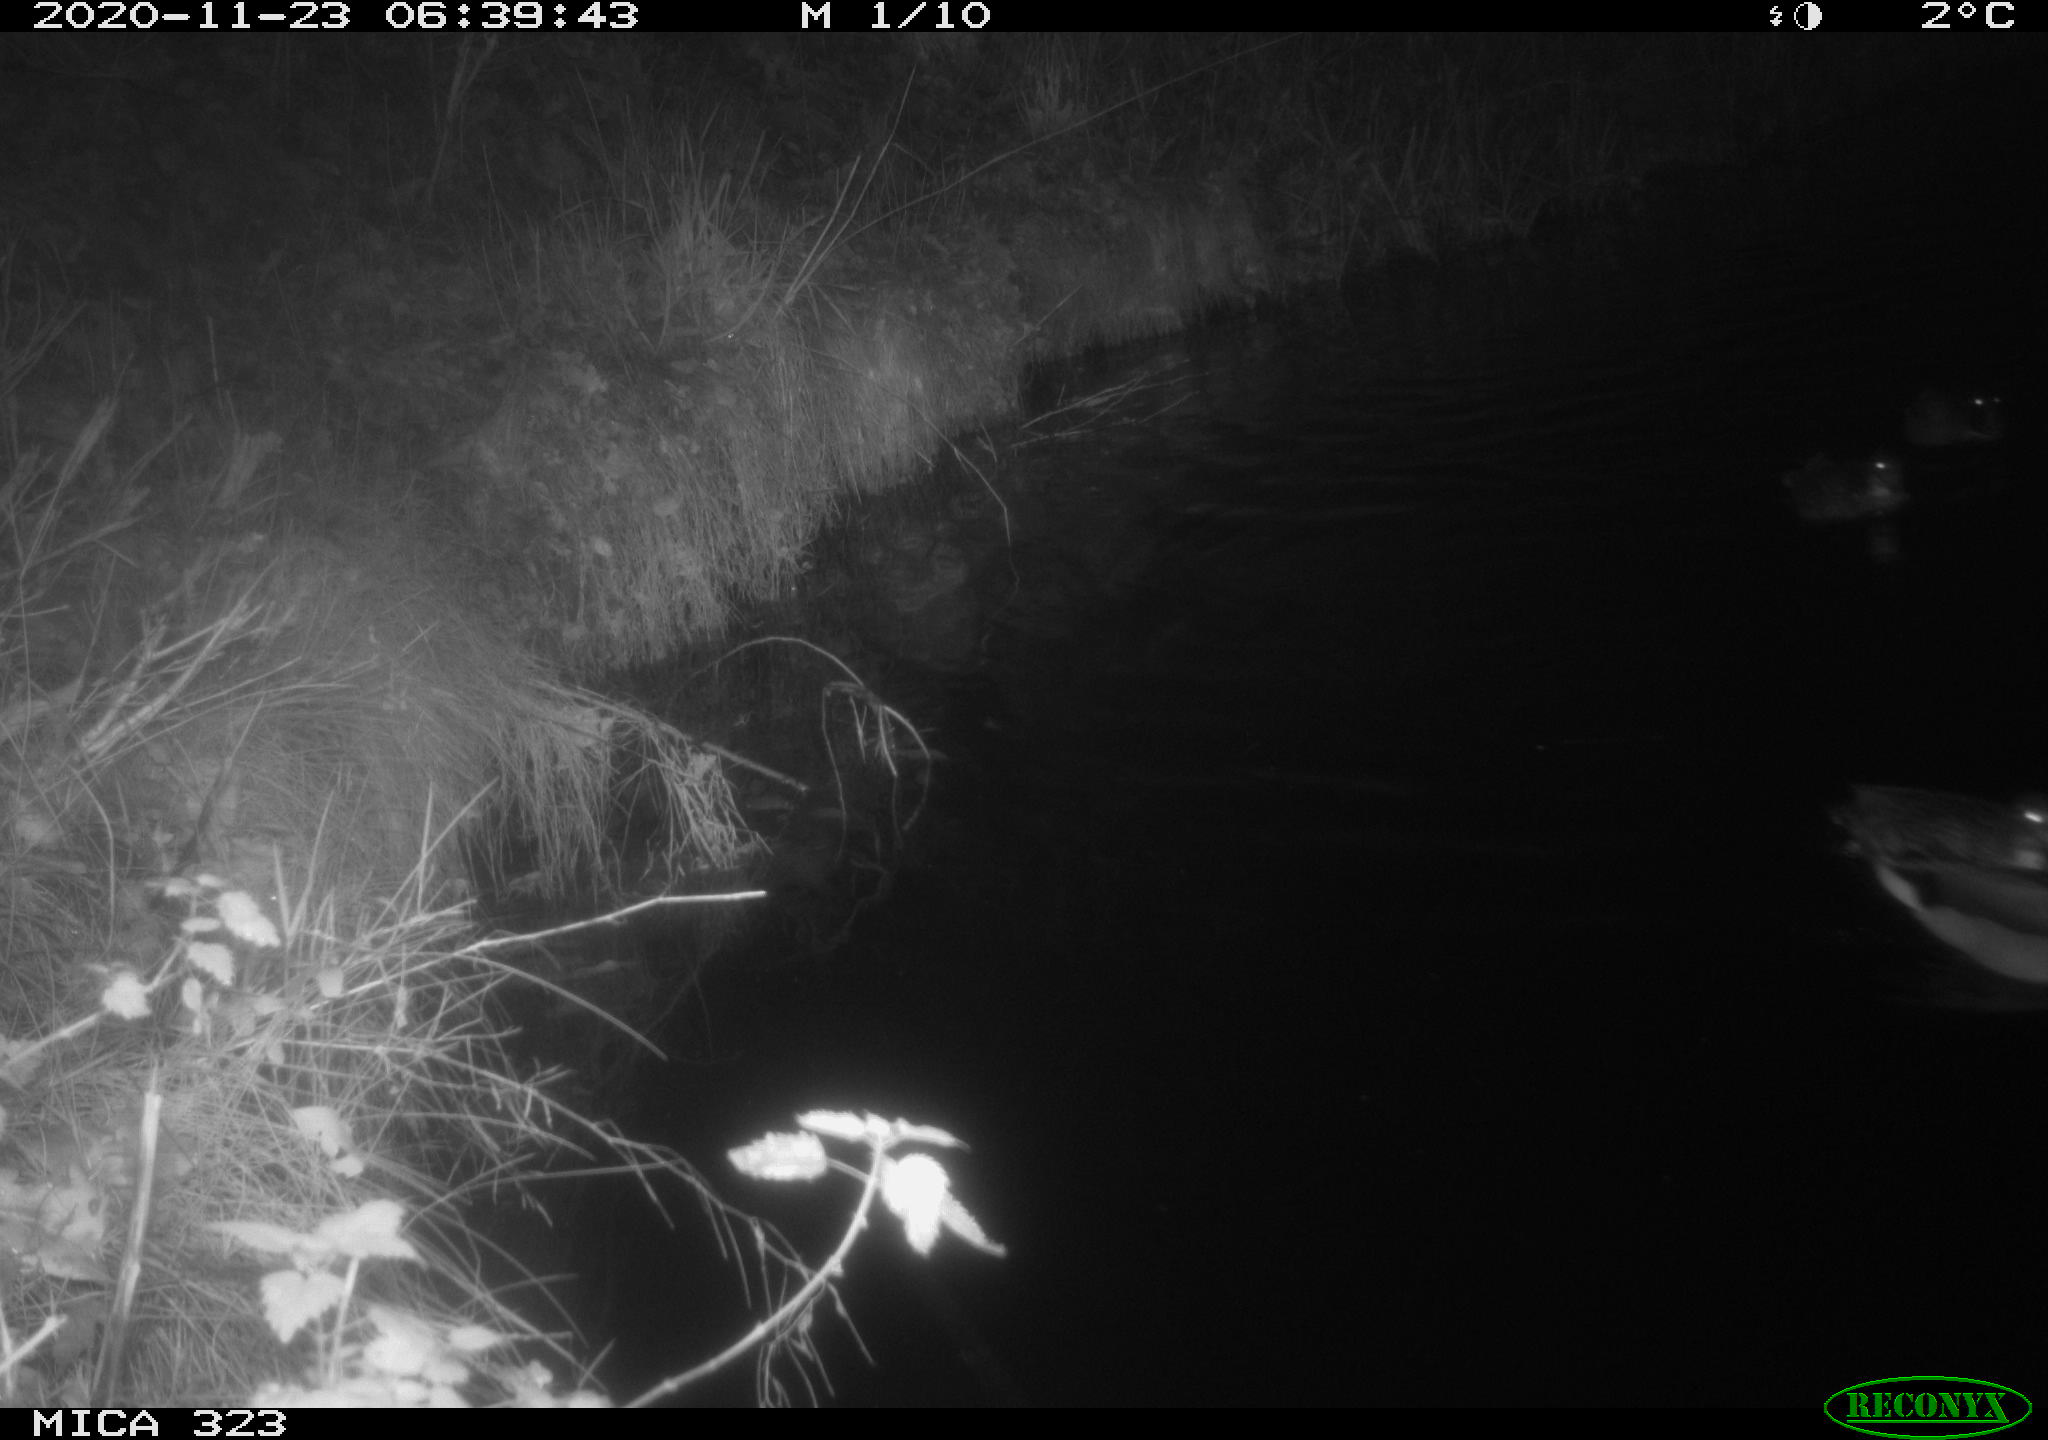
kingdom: Animalia
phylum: Chordata
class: Aves
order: Anseriformes
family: Anatidae
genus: Anas
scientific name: Anas
